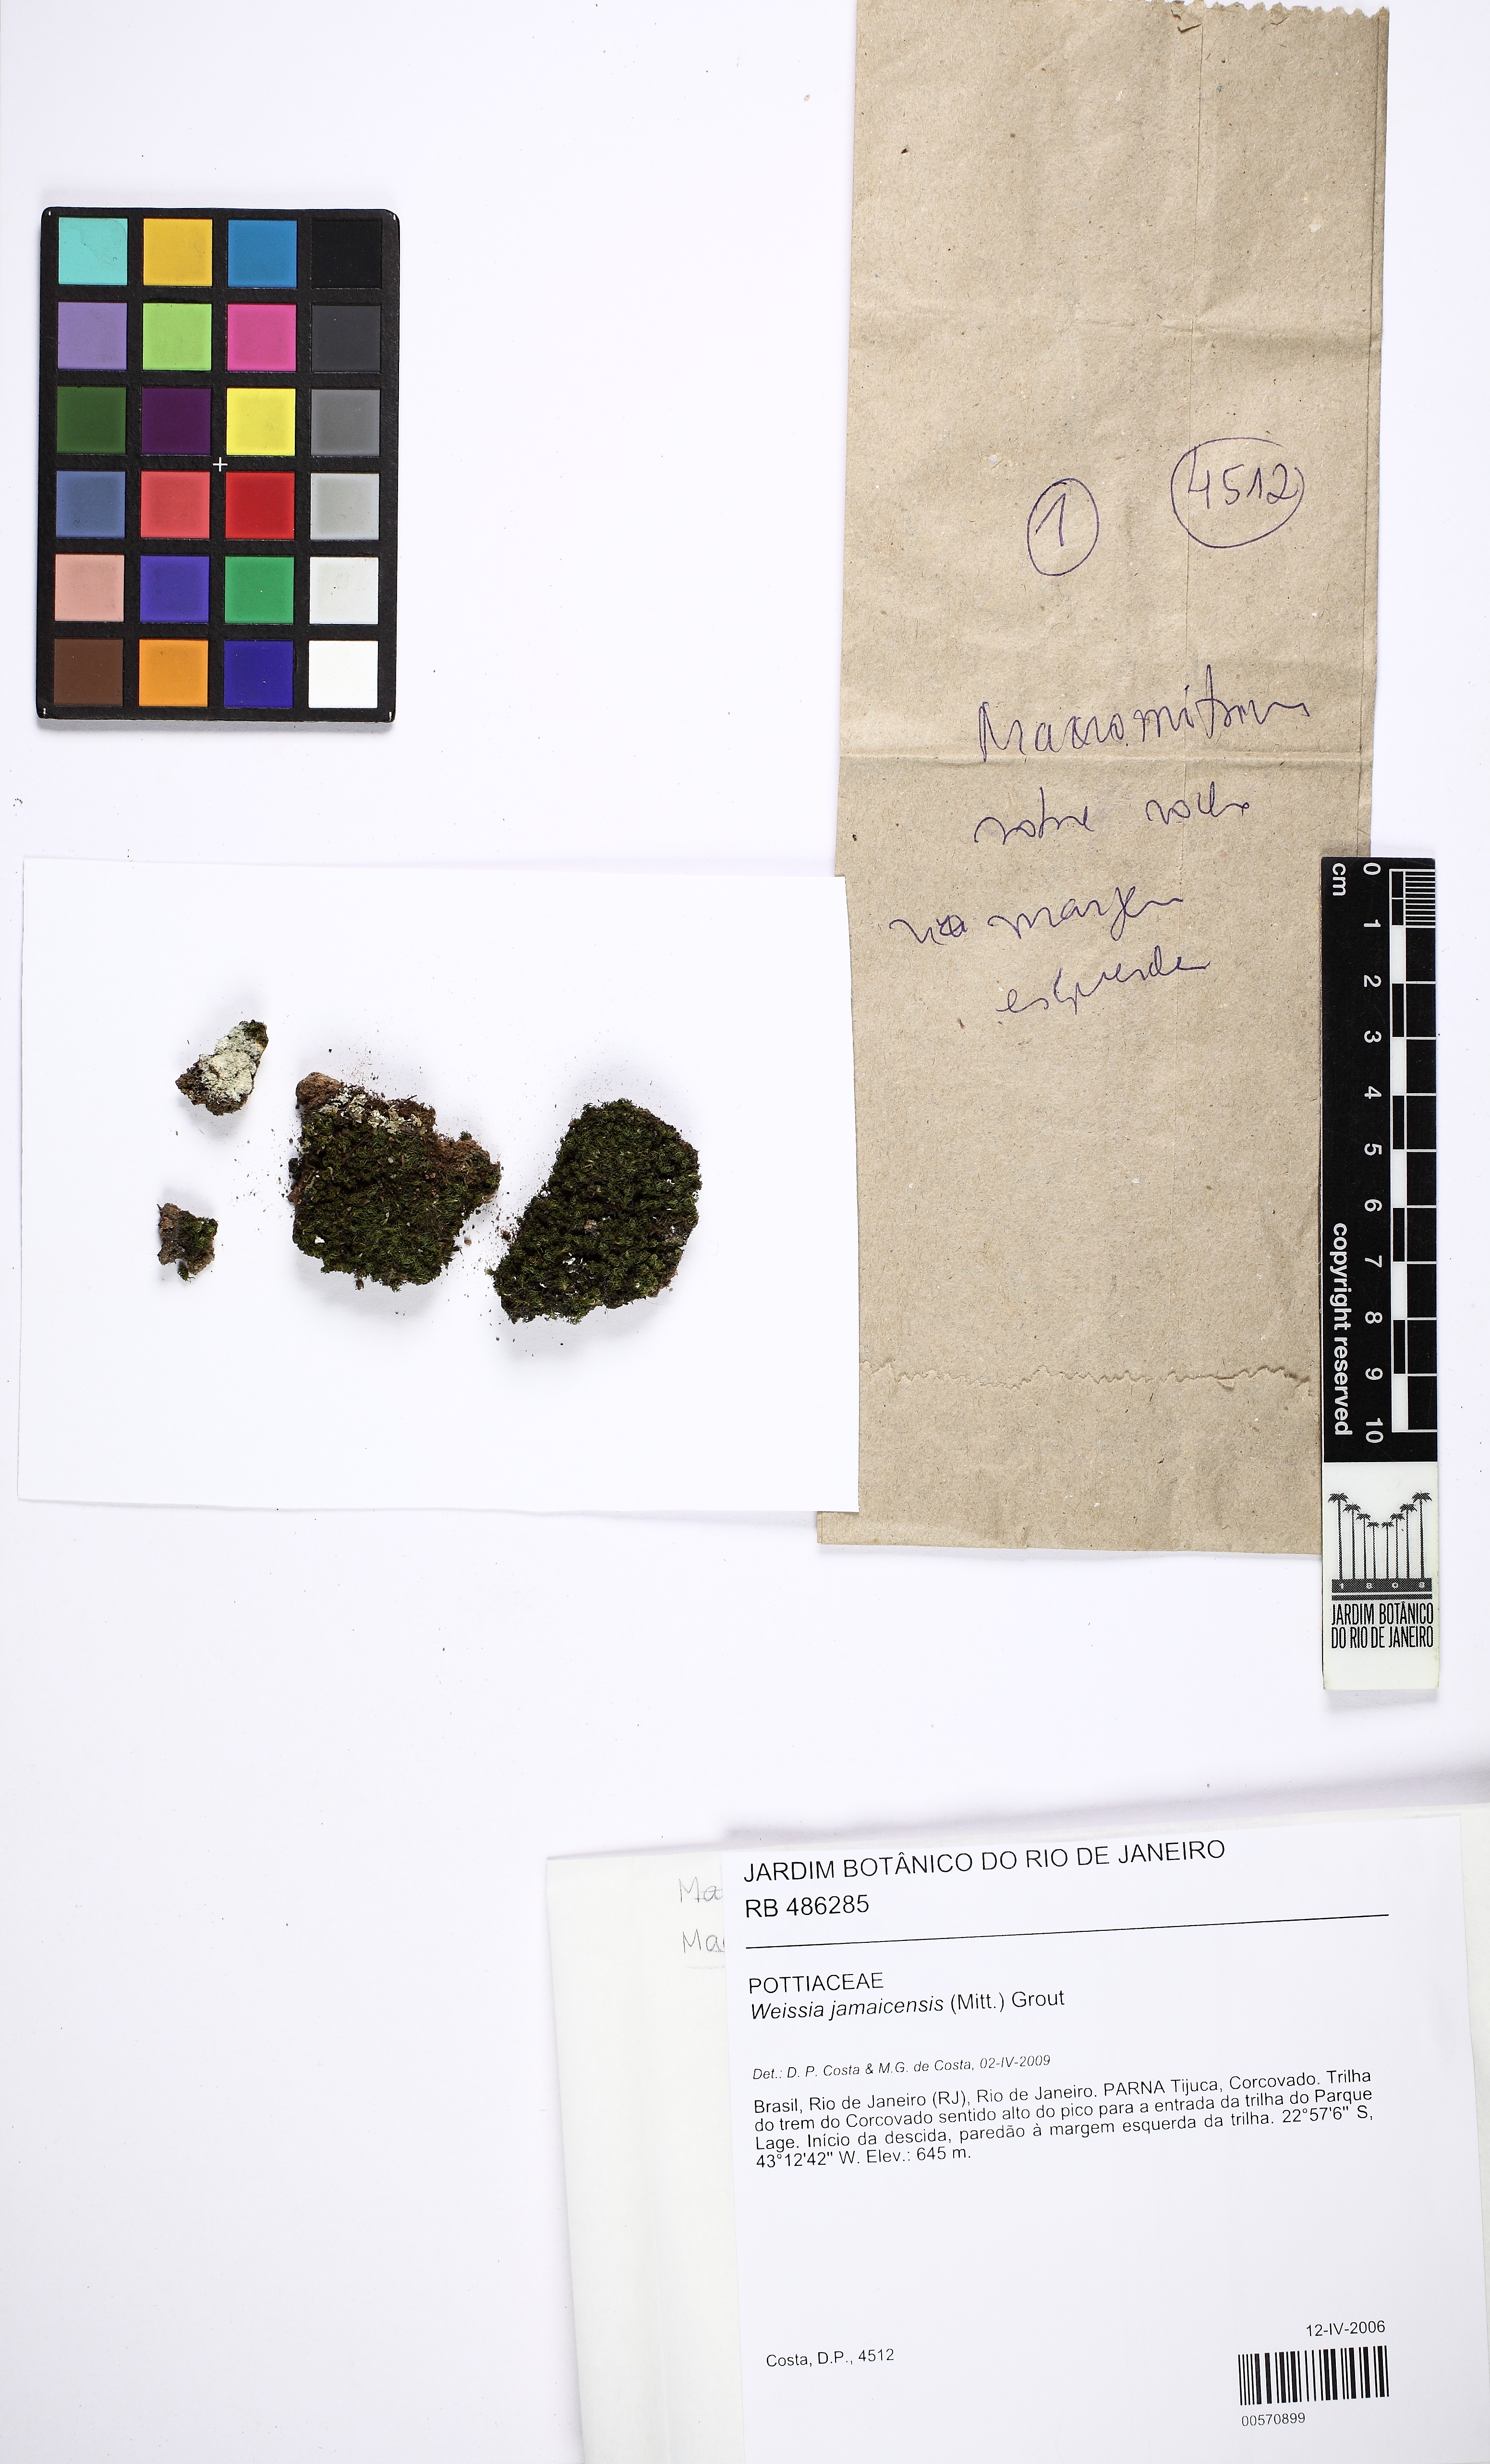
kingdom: Plantae
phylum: Bryophyta
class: Bryopsida
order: Pottiales
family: Pottiaceae
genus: Weissia
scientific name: Weissia jamaicensis
